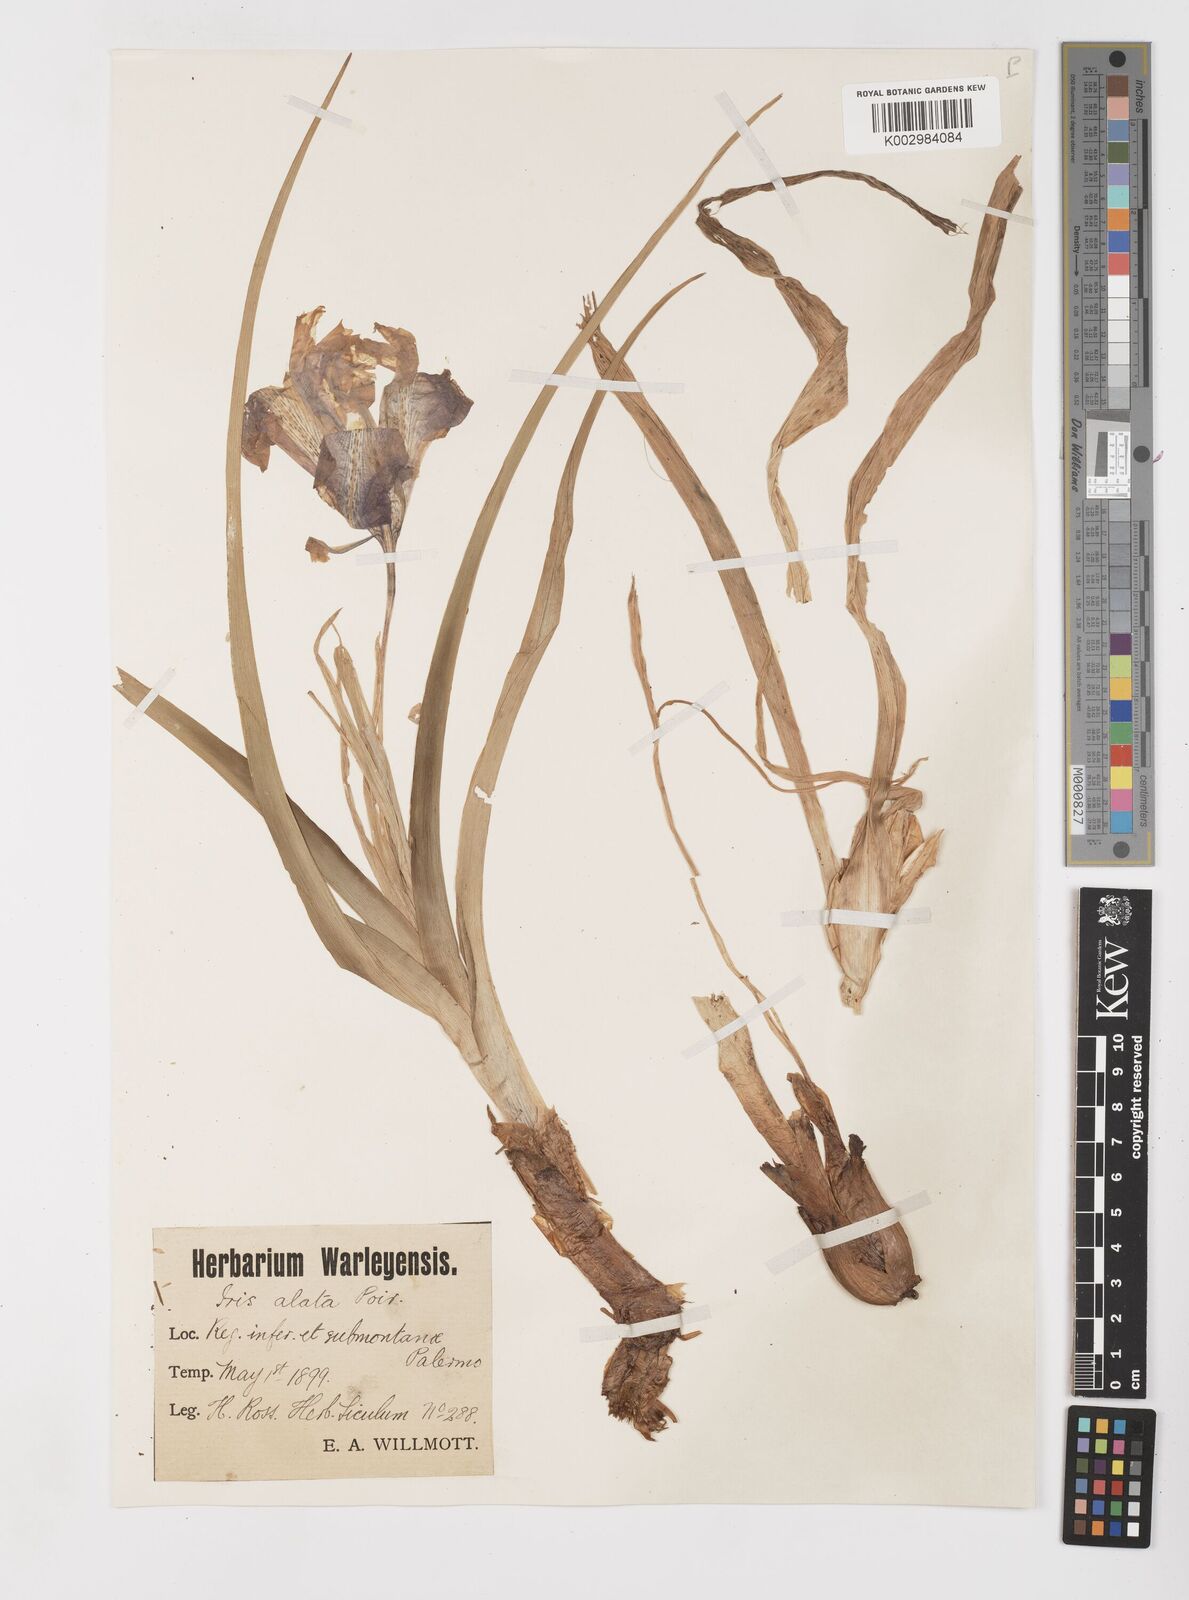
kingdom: Plantae
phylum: Tracheophyta
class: Liliopsida
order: Asparagales
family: Iridaceae
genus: Iris
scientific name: Iris planifolia
